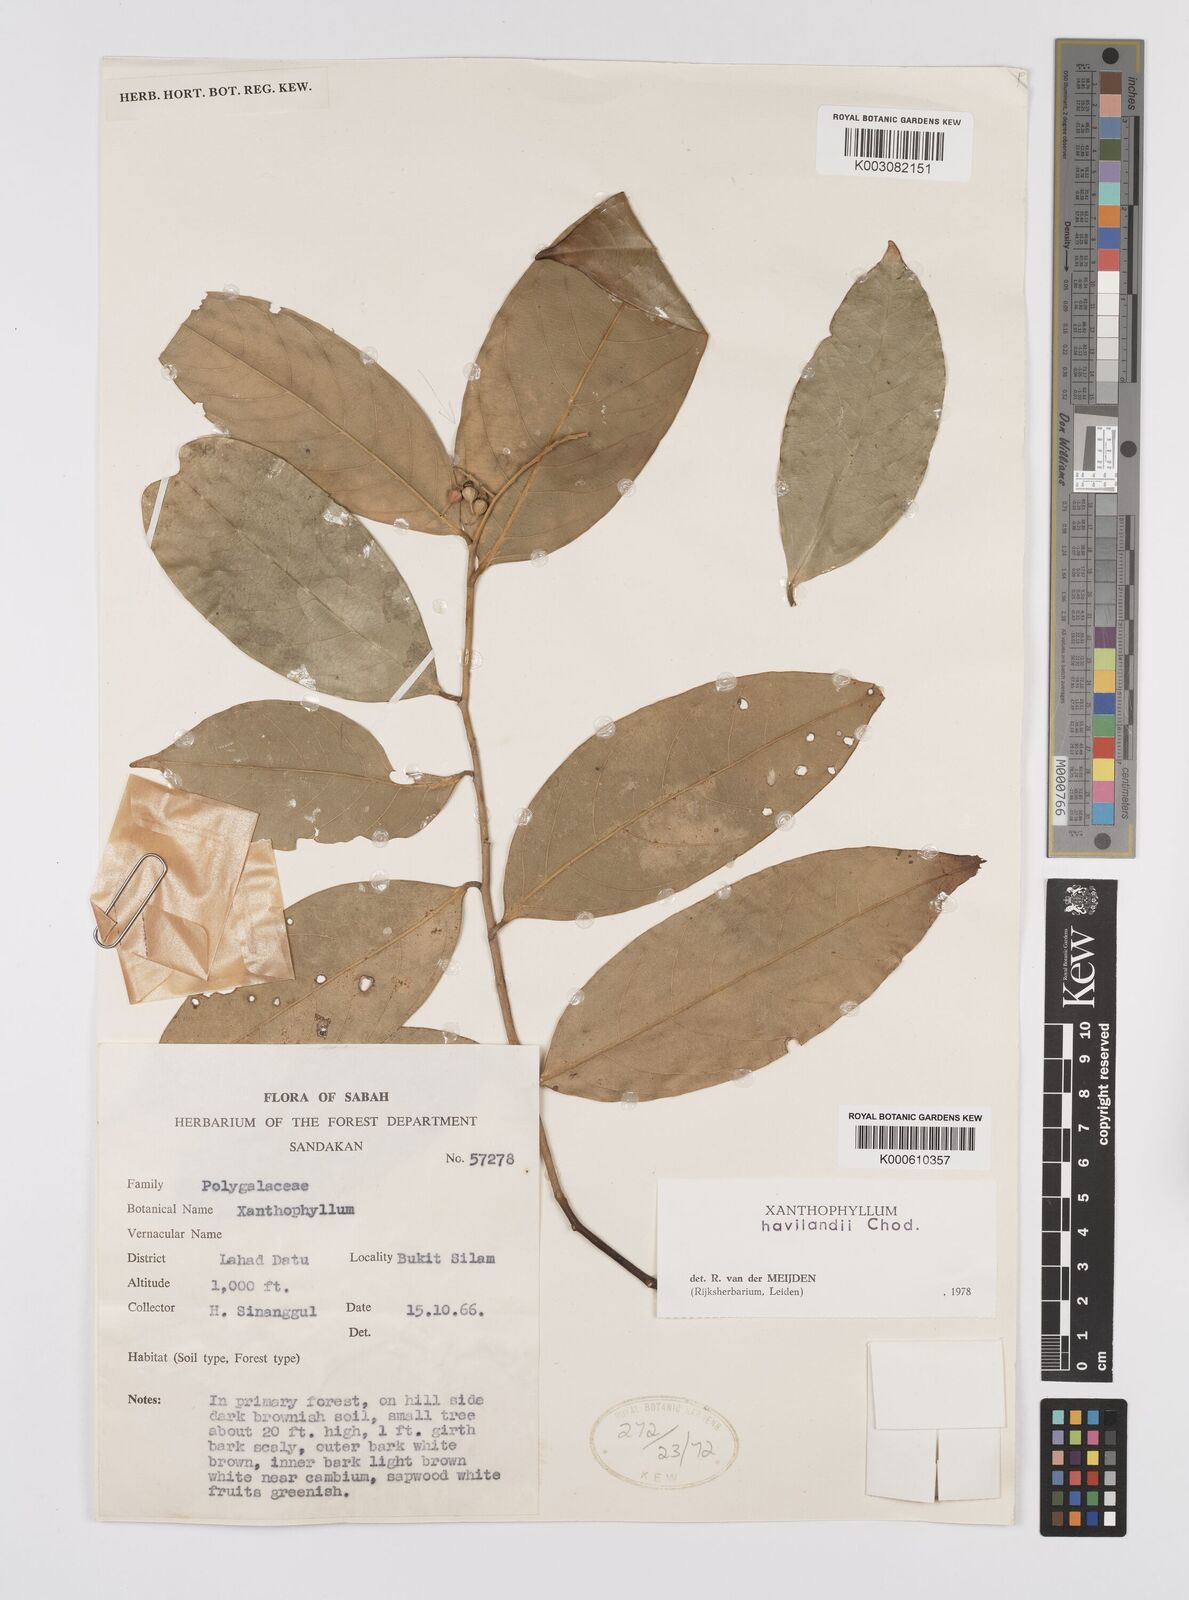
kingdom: Plantae
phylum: Tracheophyta
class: Magnoliopsida
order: Fabales
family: Polygalaceae
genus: Xanthophyllum
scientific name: Xanthophyllum flavescens
